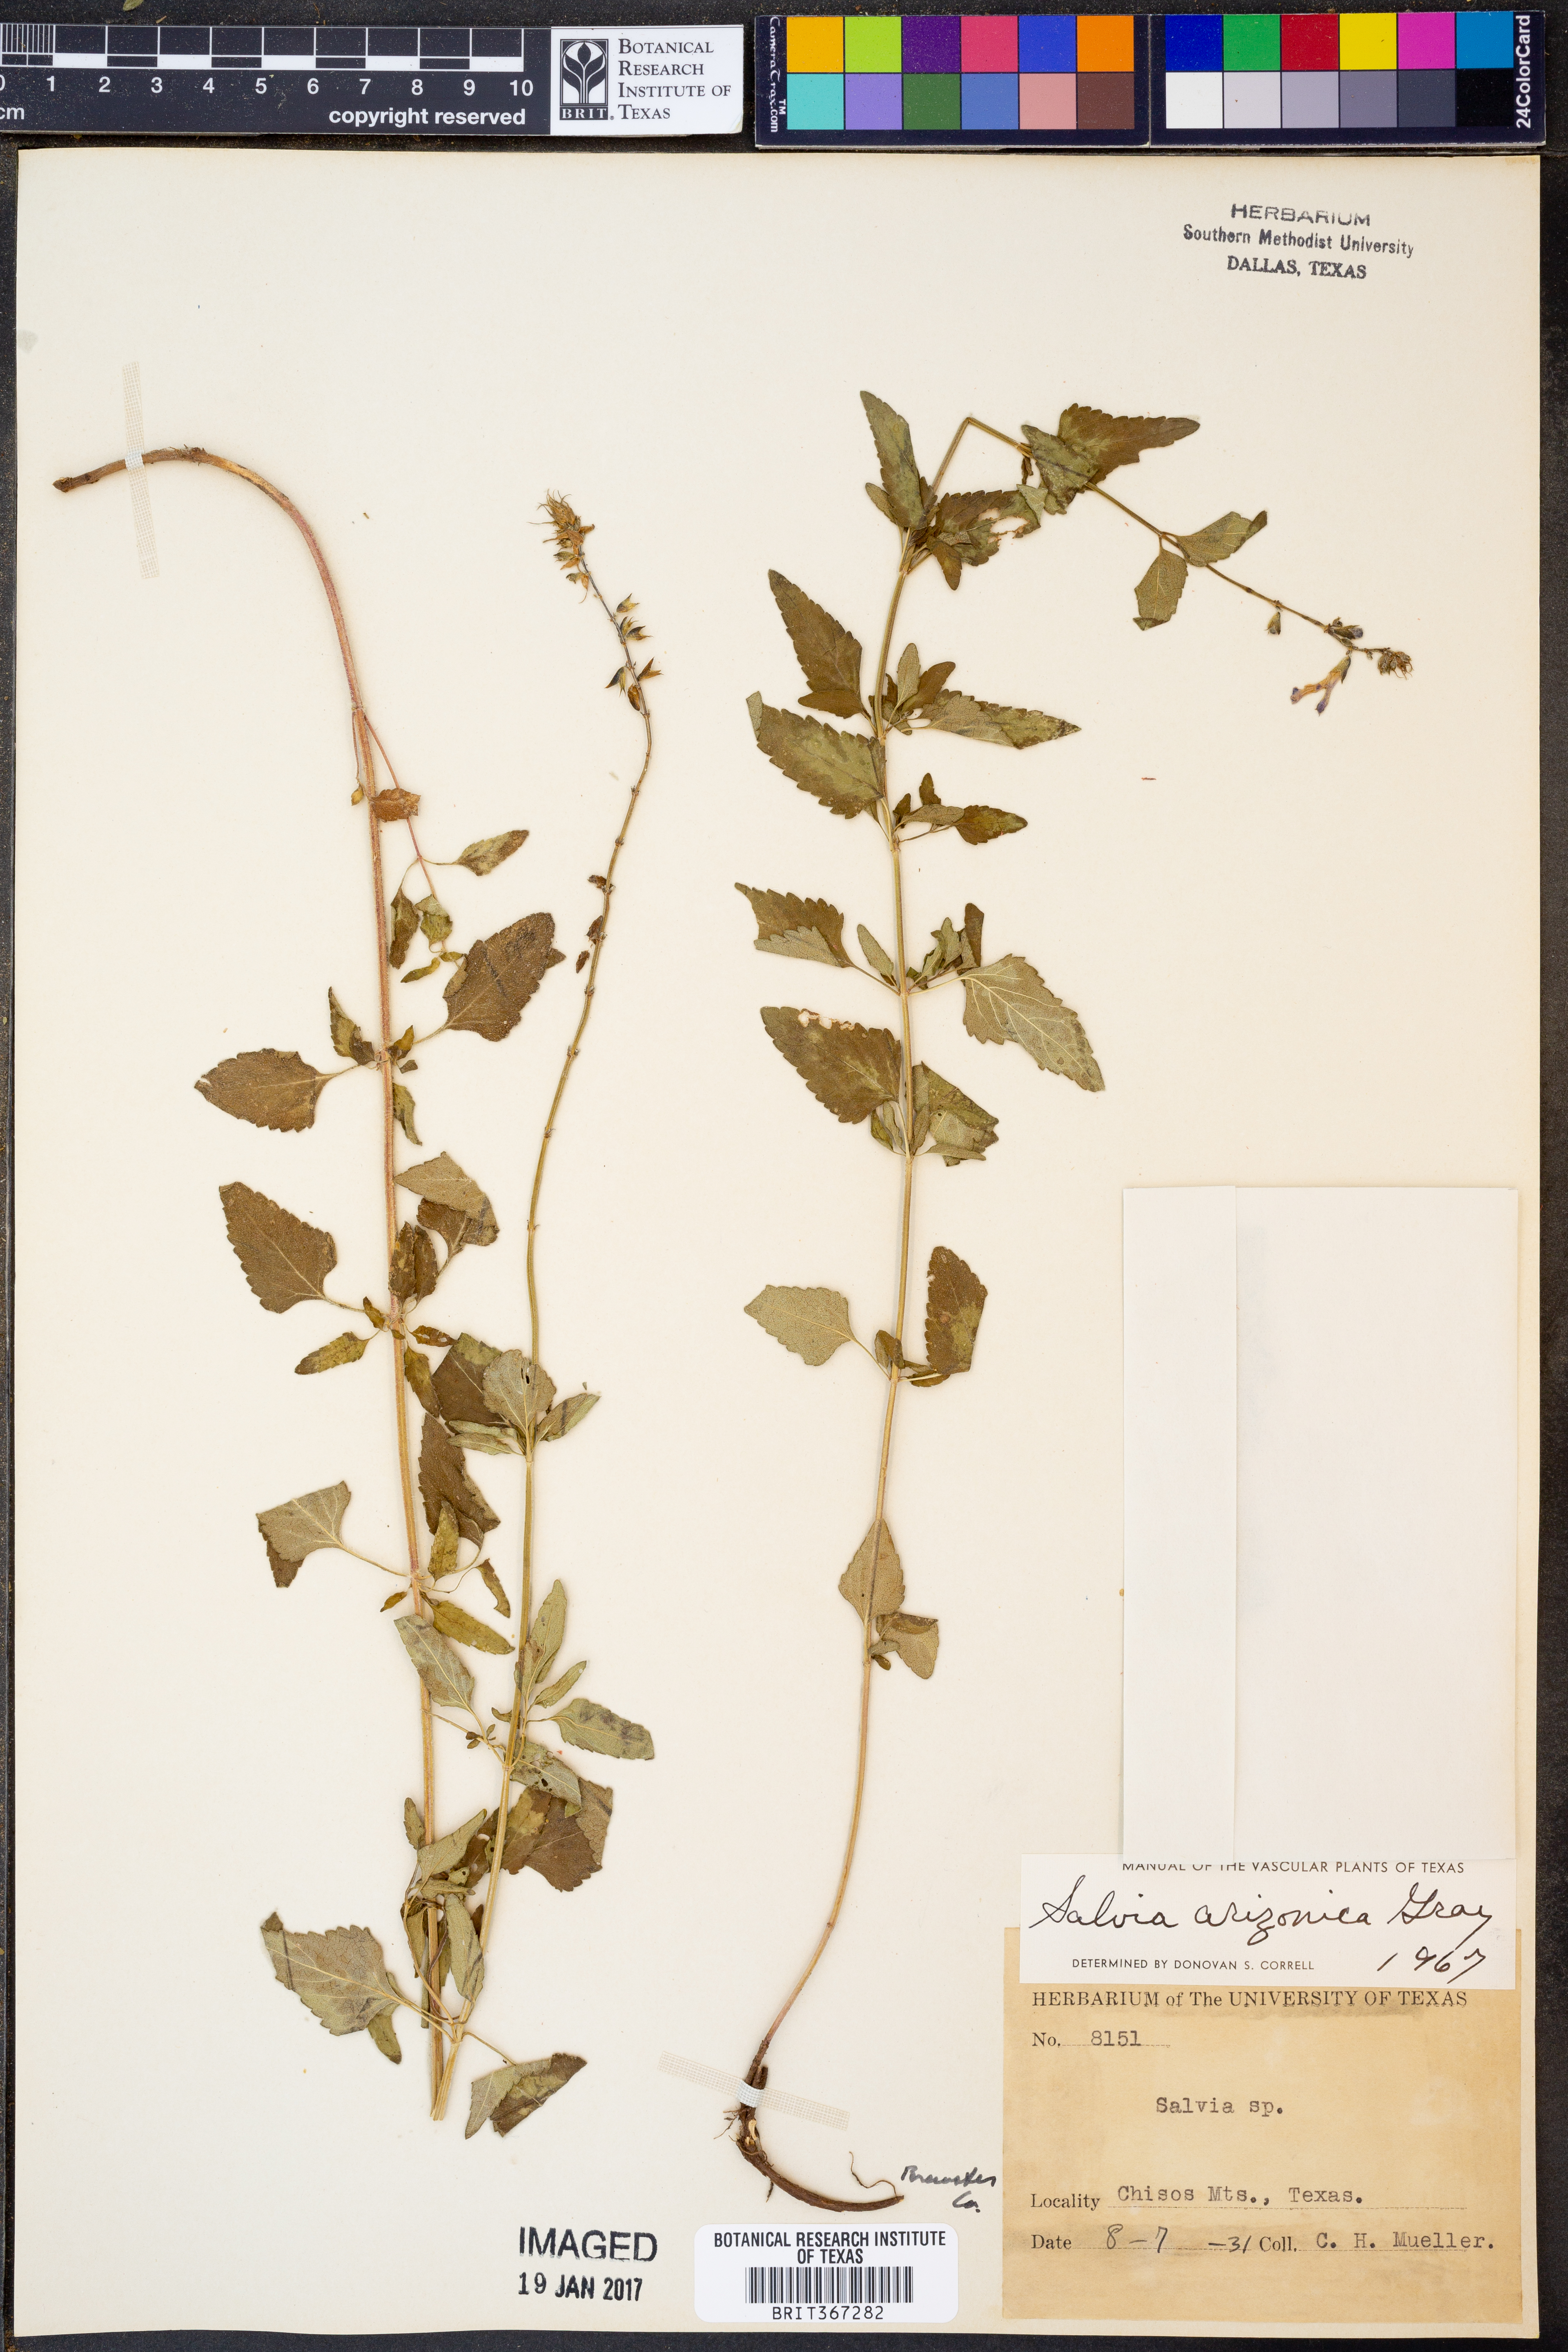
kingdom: Plantae
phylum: Tracheophyta
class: Magnoliopsida
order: Lamiales
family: Lamiaceae
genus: Salvia
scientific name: Salvia arizonica
